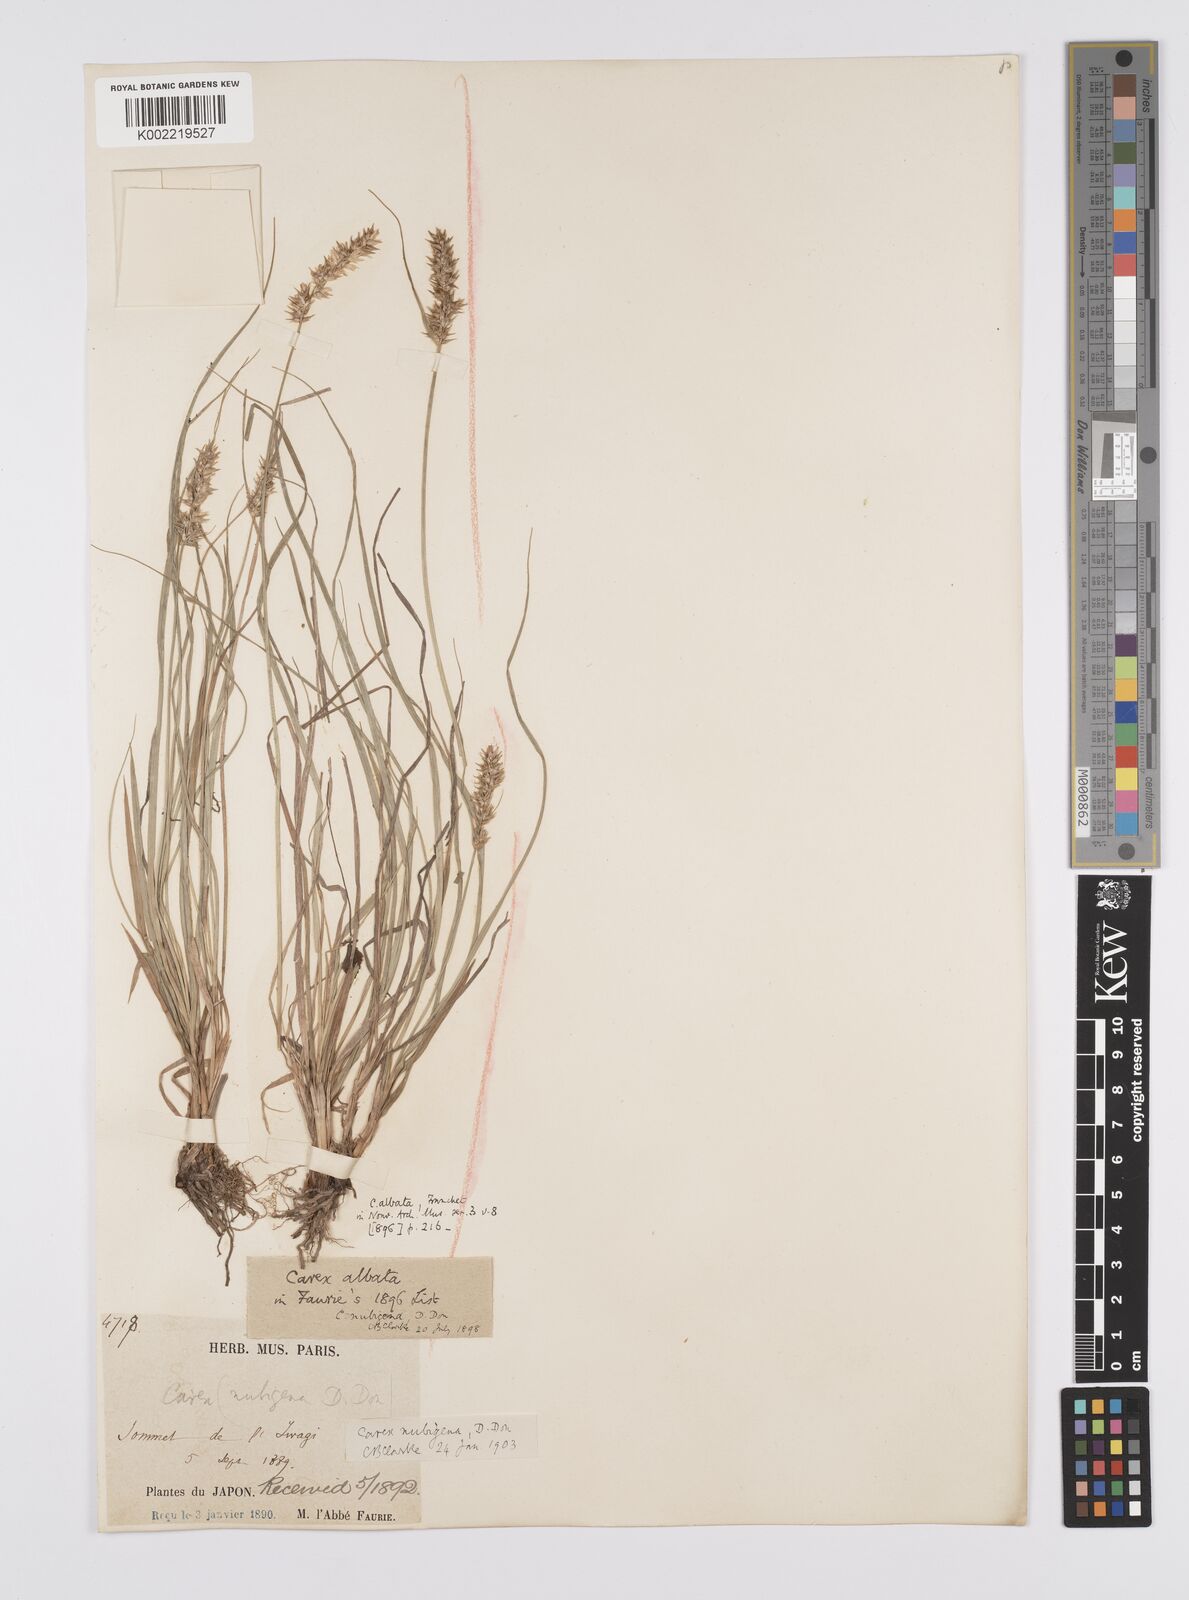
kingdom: Plantae
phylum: Tracheophyta
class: Liliopsida
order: Poales
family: Cyperaceae
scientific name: Cyperaceae
